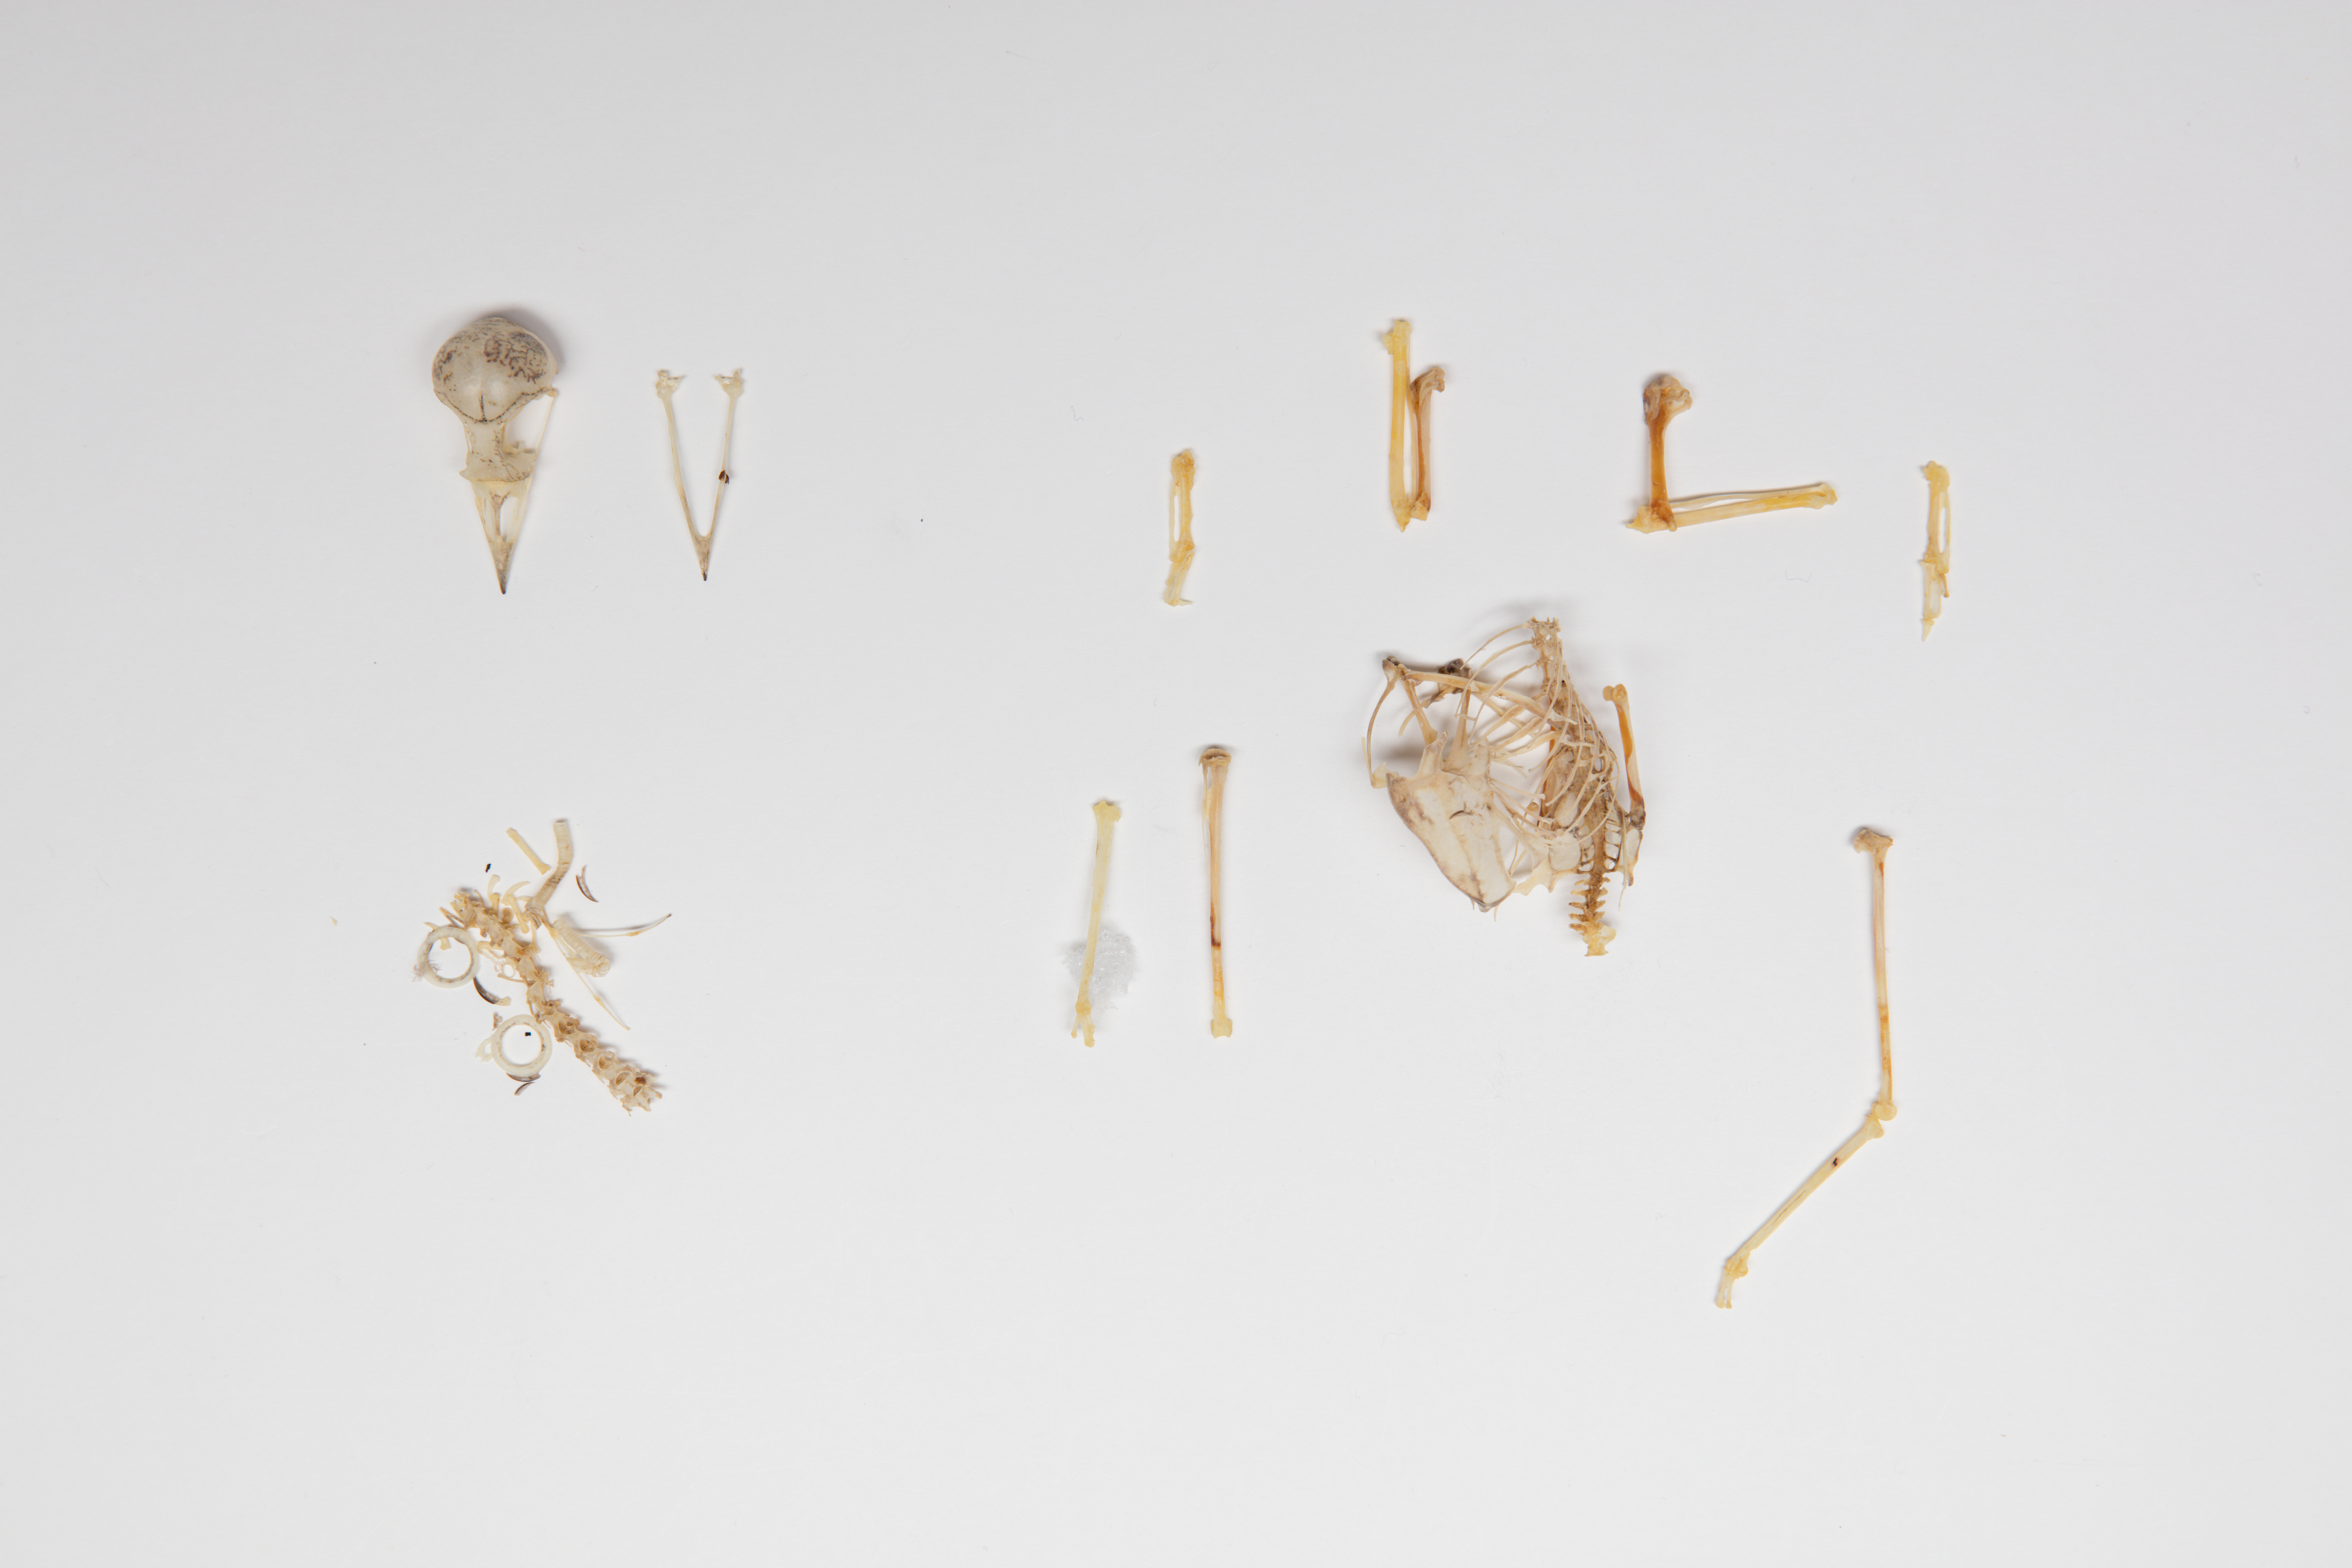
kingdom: Animalia
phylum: Chordata
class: Aves
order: Passeriformes
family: Turdidae
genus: Catharus
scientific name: Catharus ustulatus
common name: Swainson's thrush
